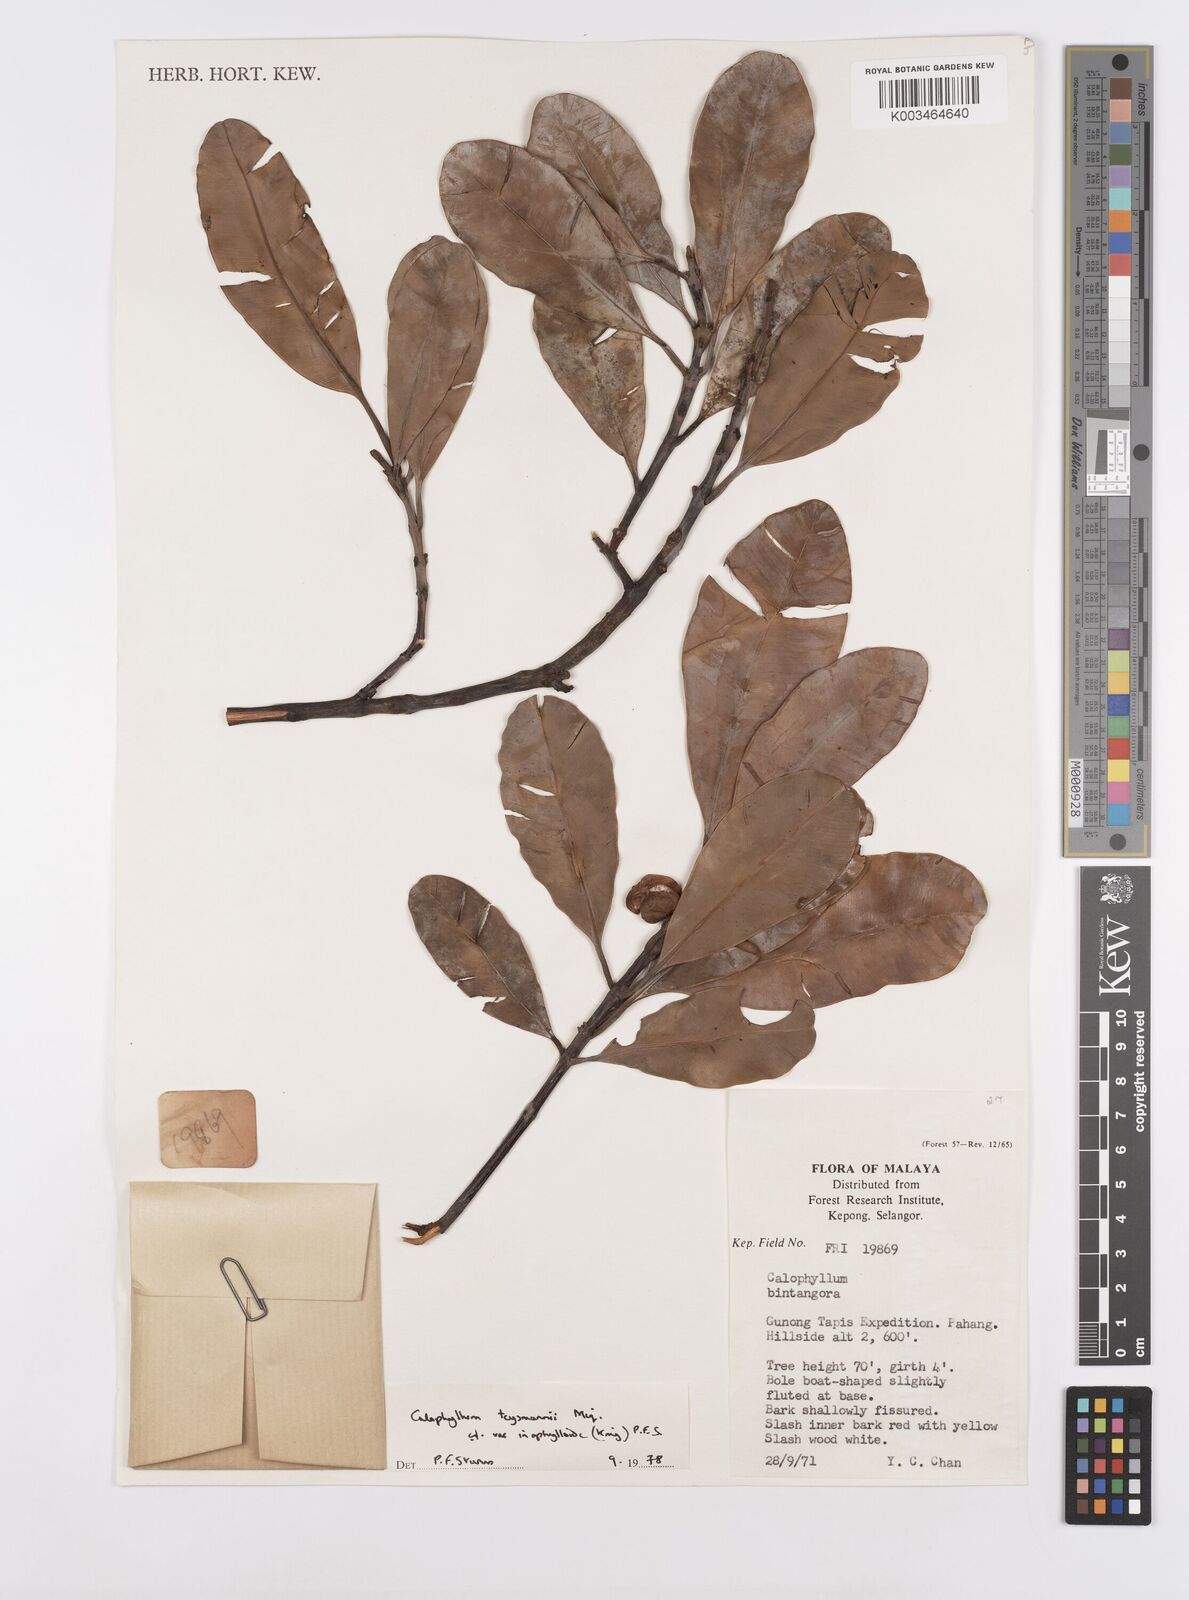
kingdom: Plantae
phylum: Tracheophyta
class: Magnoliopsida
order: Malpighiales
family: Calophyllaceae
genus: Calophyllum
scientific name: Calophyllum teysmannii
